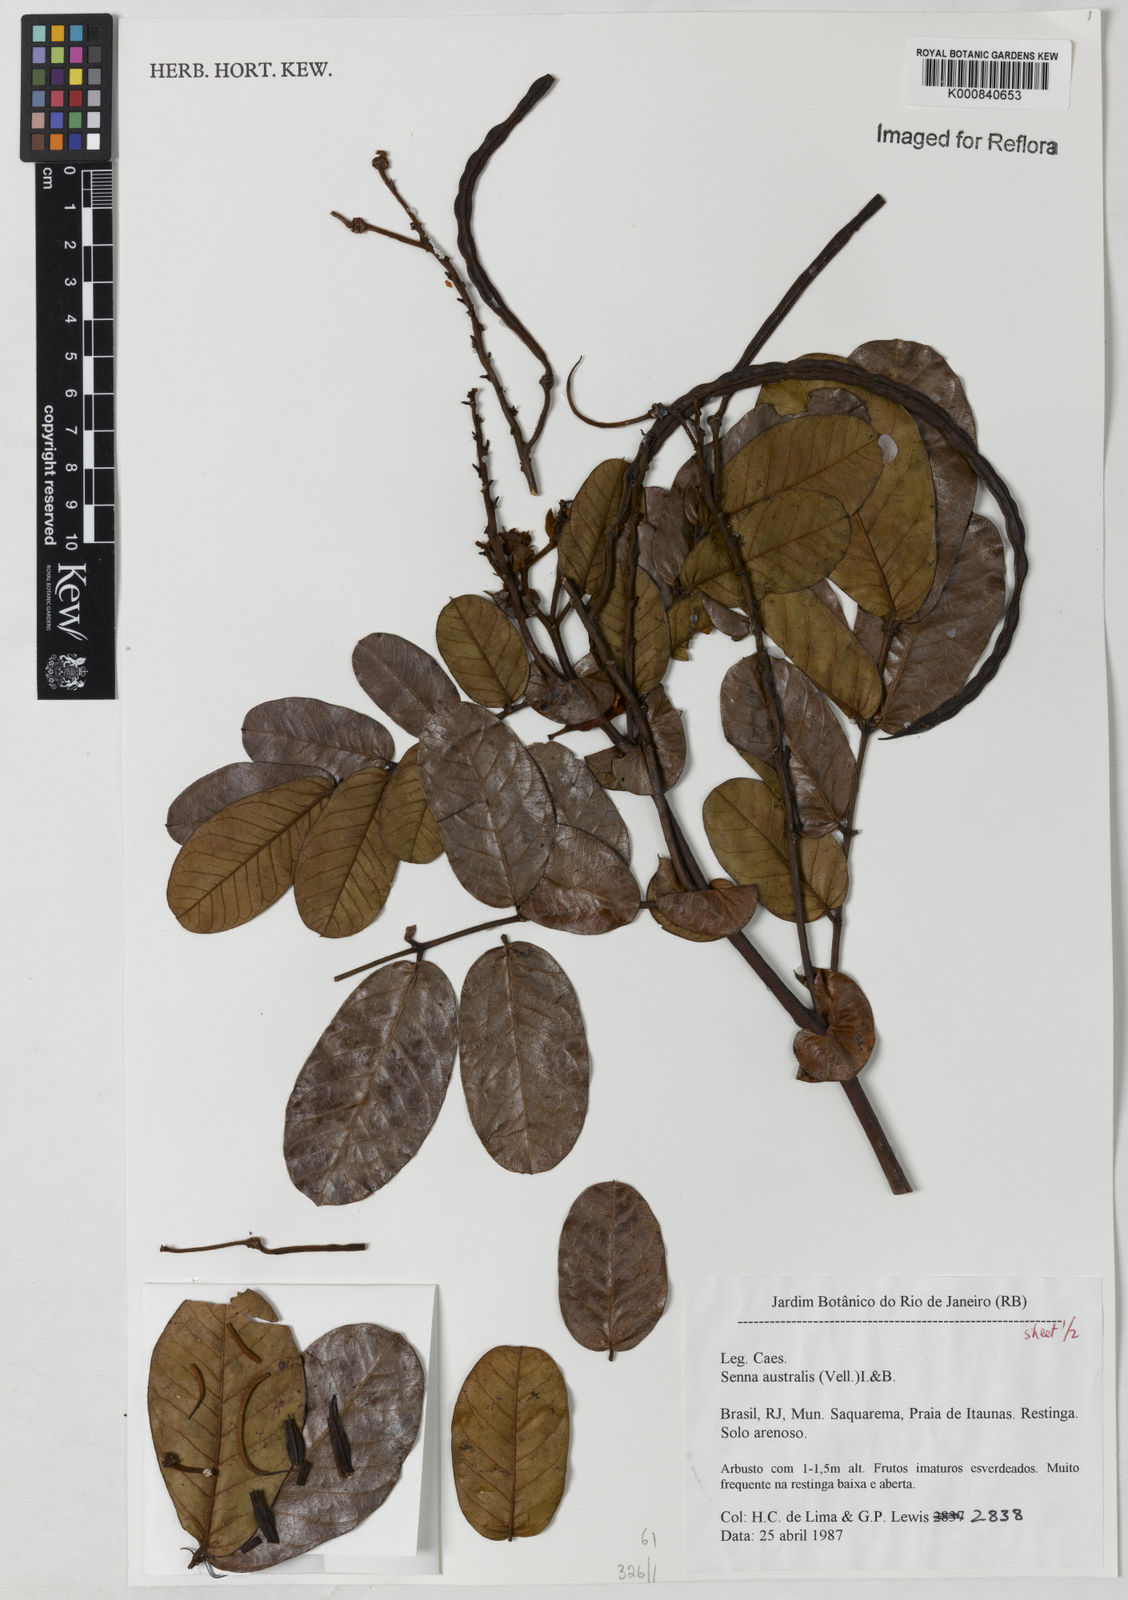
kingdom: Plantae
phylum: Tracheophyta
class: Magnoliopsida
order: Fabales
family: Fabaceae
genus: Senna
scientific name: Senna appendiculata
